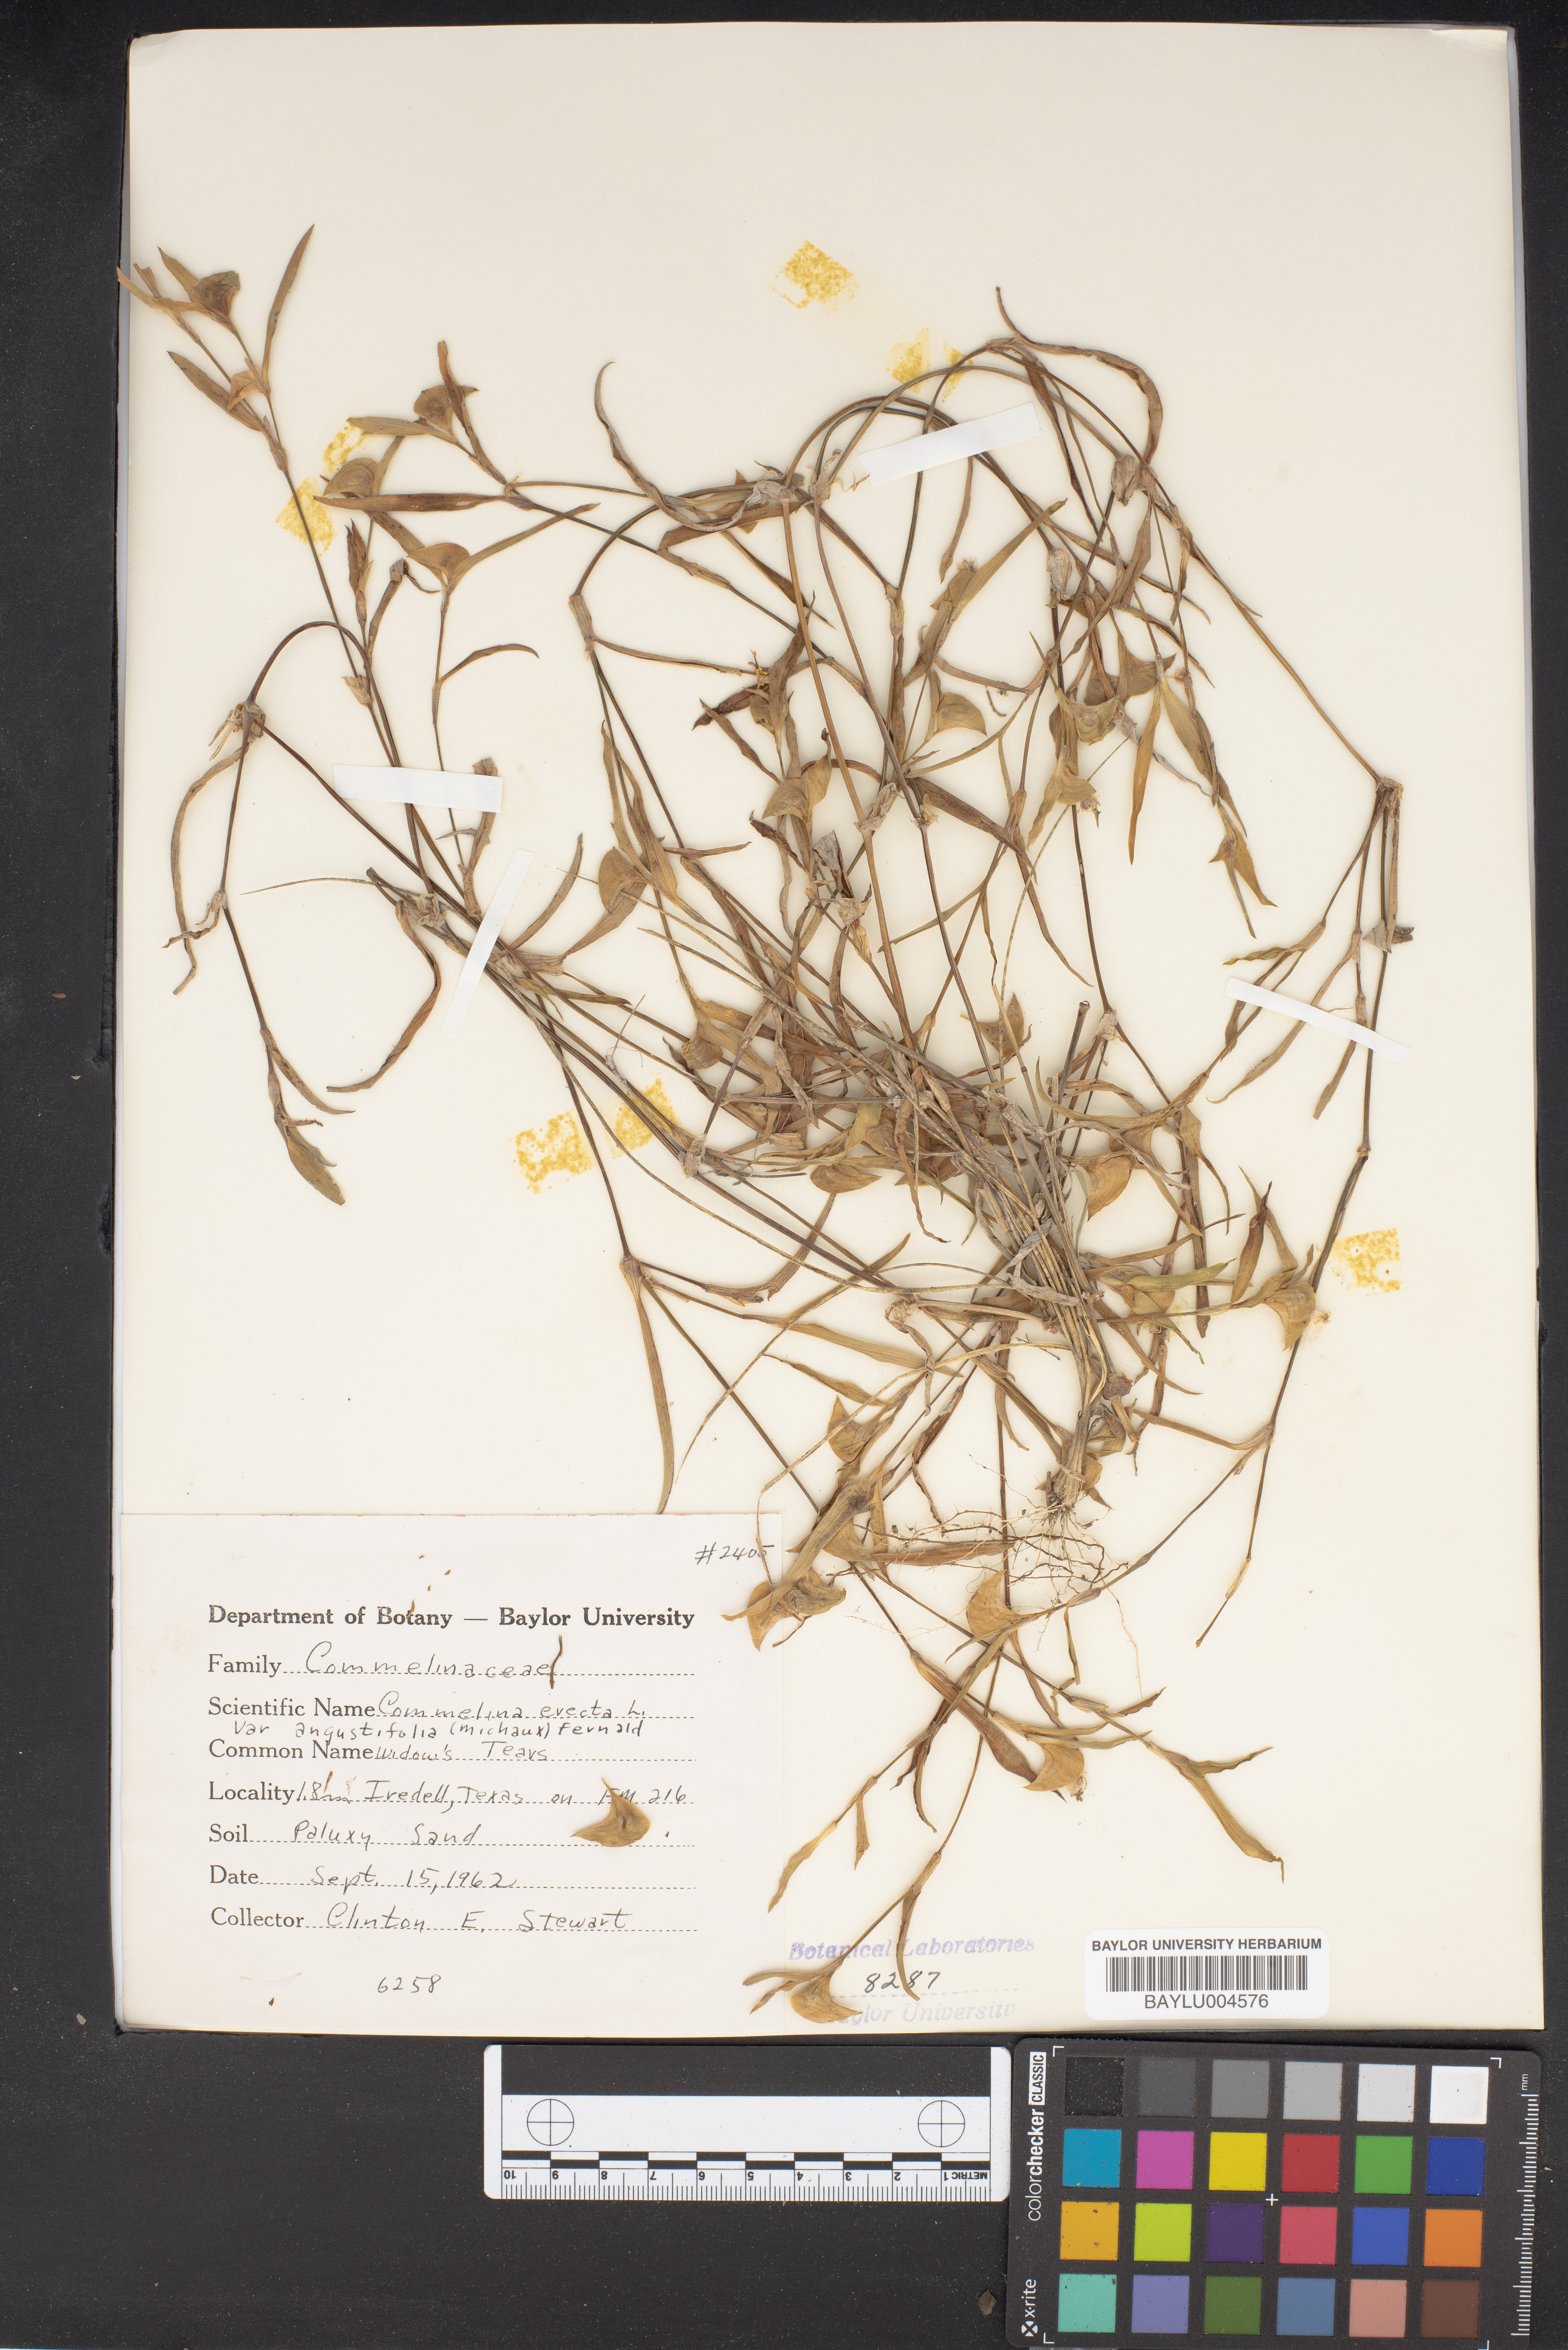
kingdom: Plantae
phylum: Tracheophyta
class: Liliopsida
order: Commelinales
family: Commelinaceae
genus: Commelina
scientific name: Commelina erecta
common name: Blousel blommetjie
